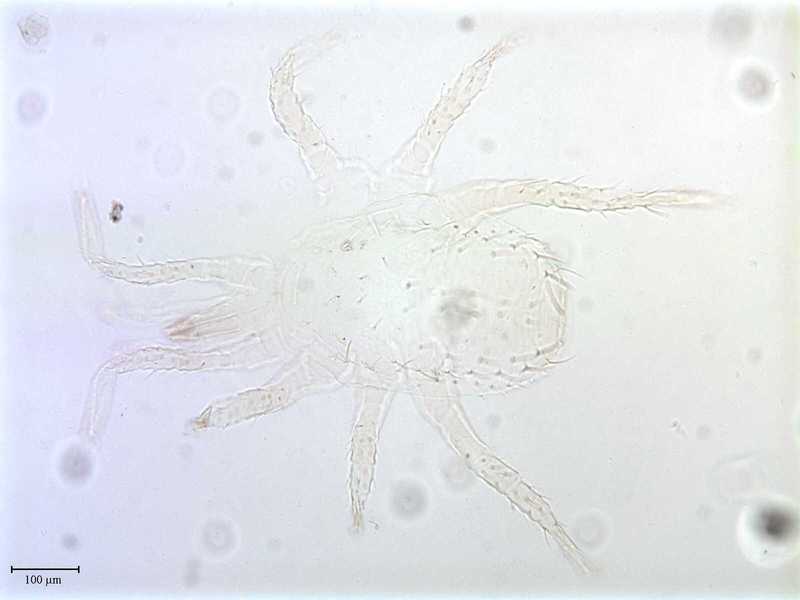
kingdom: Animalia
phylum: Arthropoda
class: Arachnida
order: Mesostigmata
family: Blattisociidae
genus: Lasioseius
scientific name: Lasioseius ometes
